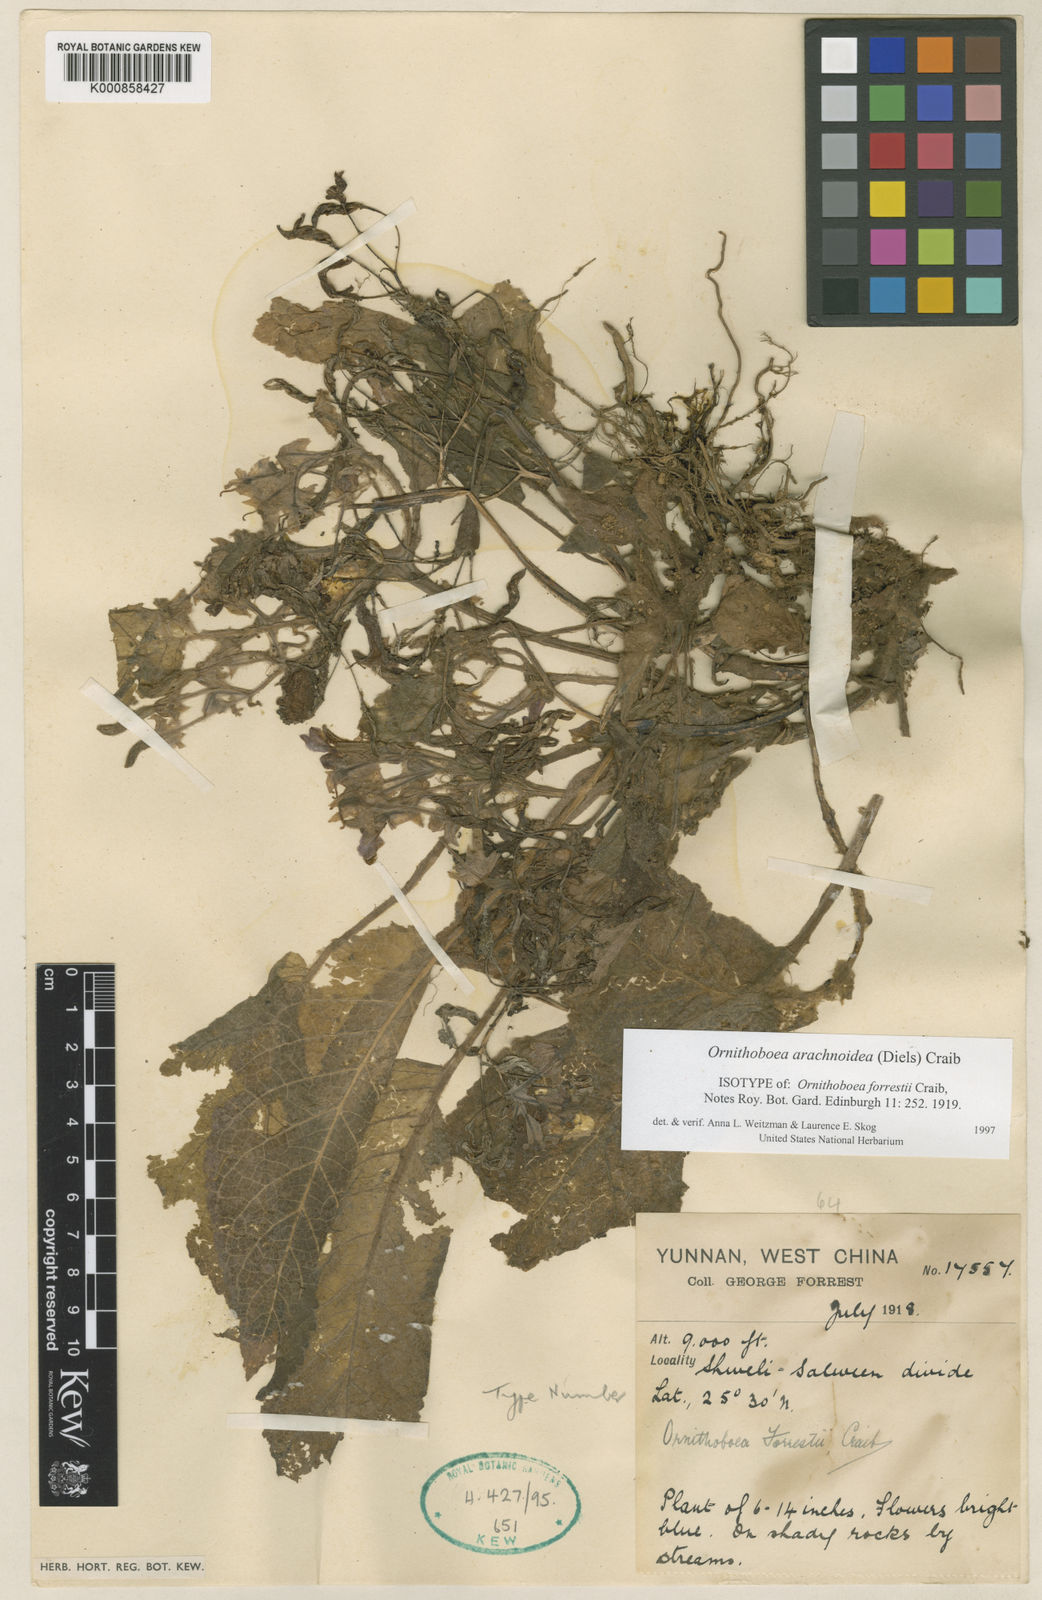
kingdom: Plantae
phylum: Tracheophyta
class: Magnoliopsida
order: Lamiales
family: Gesneriaceae
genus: Ornithoboea
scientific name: Ornithoboea arachnoidea
